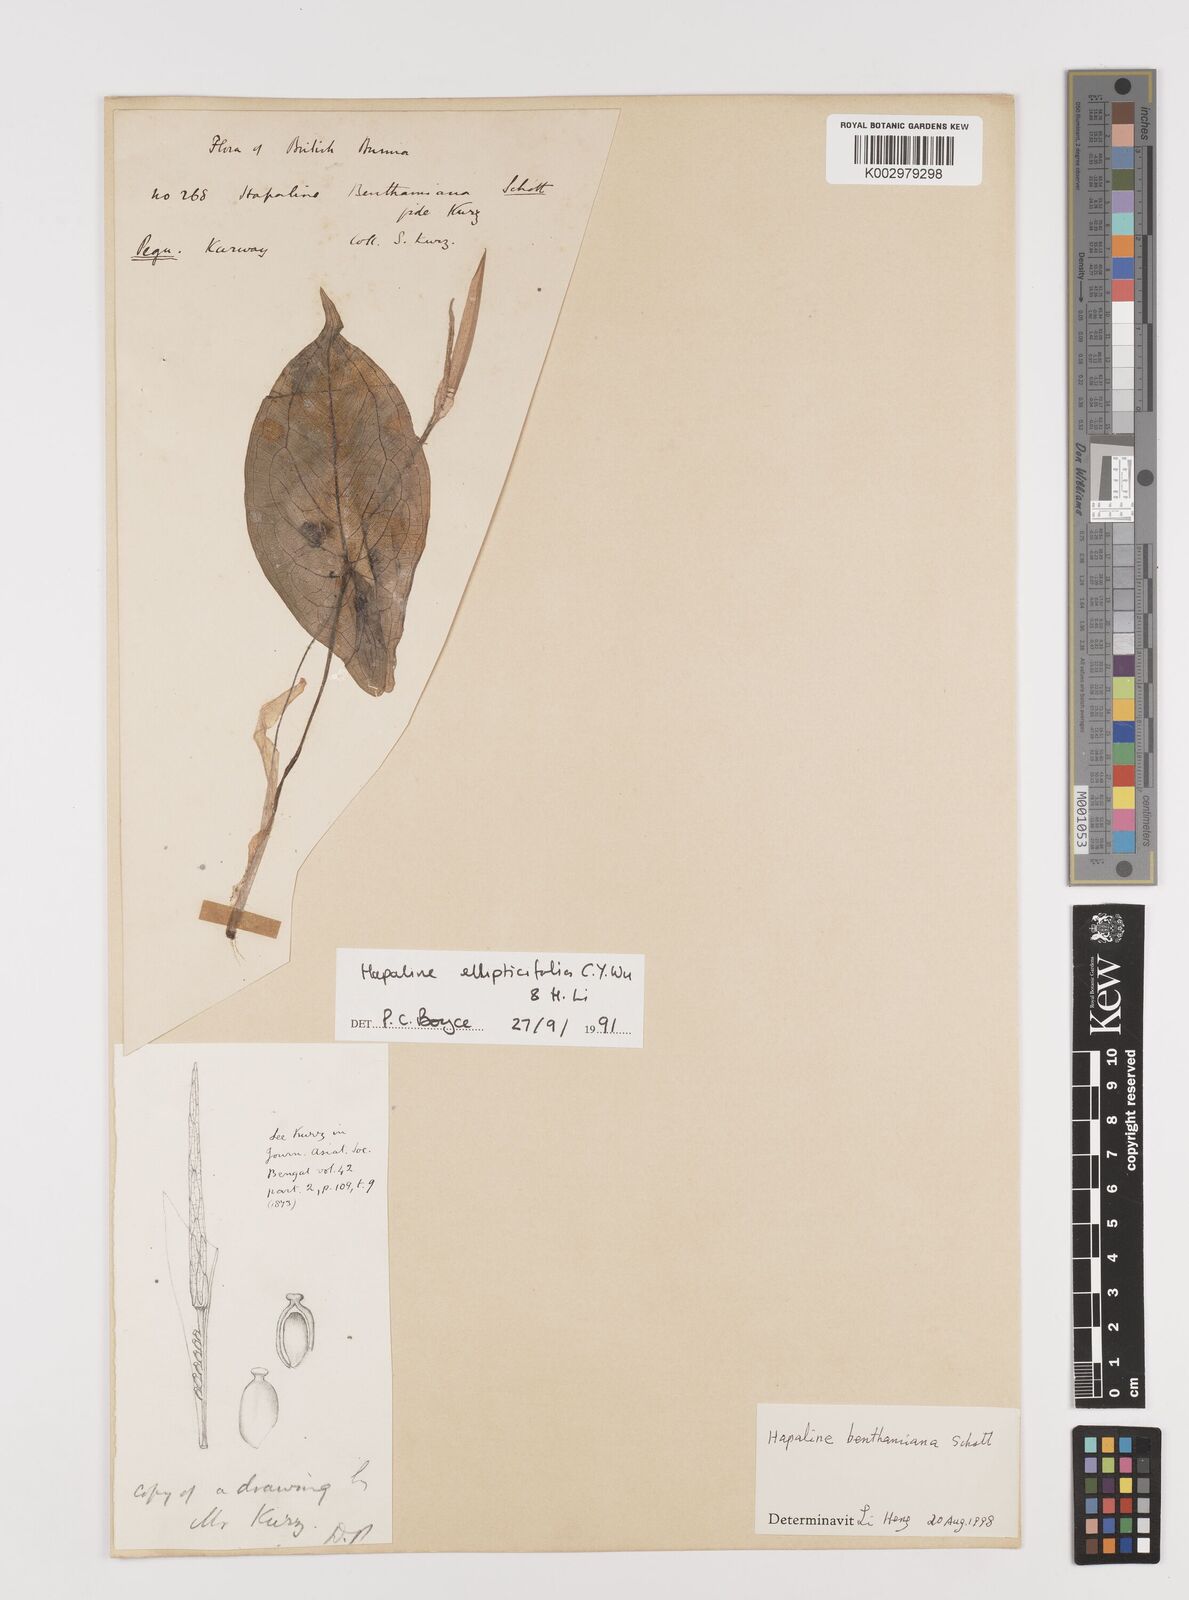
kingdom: Plantae
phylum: Tracheophyta
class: Liliopsida
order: Alismatales
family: Araceae
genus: Hapaline
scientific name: Hapaline ellipticifolia
